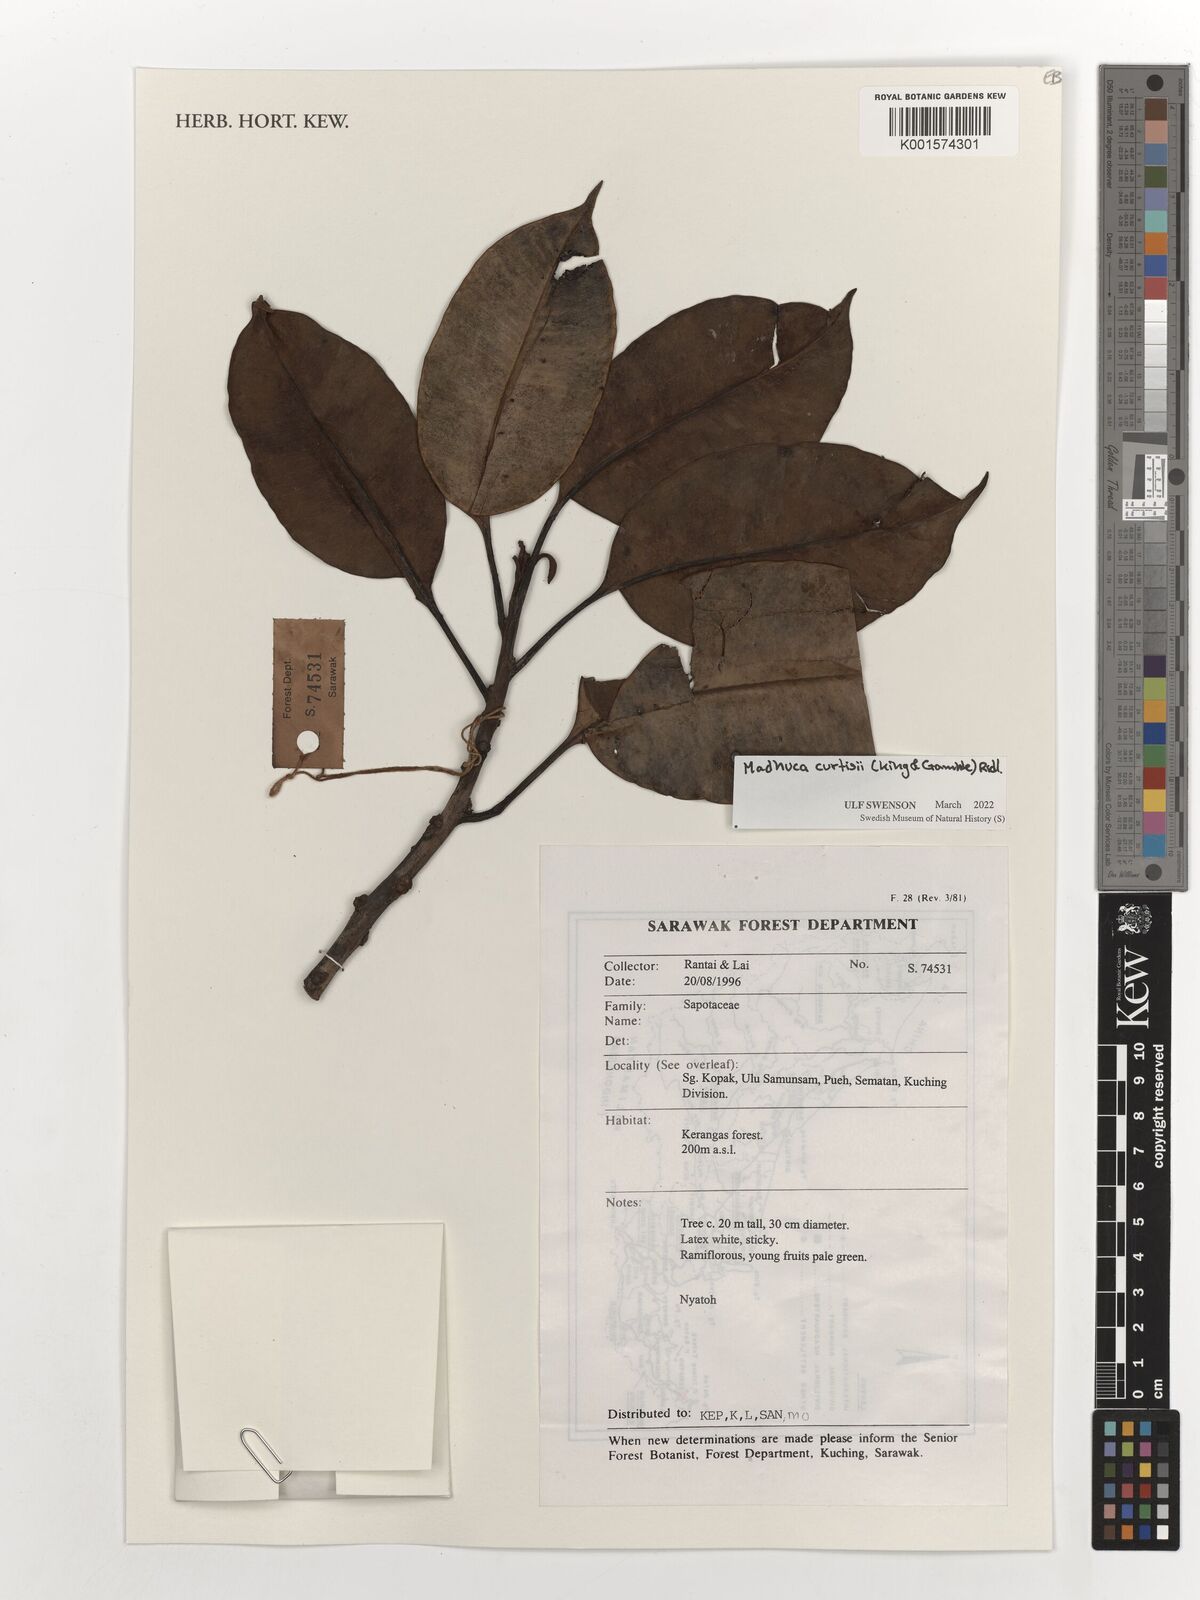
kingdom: Plantae
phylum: Tracheophyta
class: Magnoliopsida
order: Ericales
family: Sapotaceae
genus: Madhuca
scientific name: Madhuca curtisii
